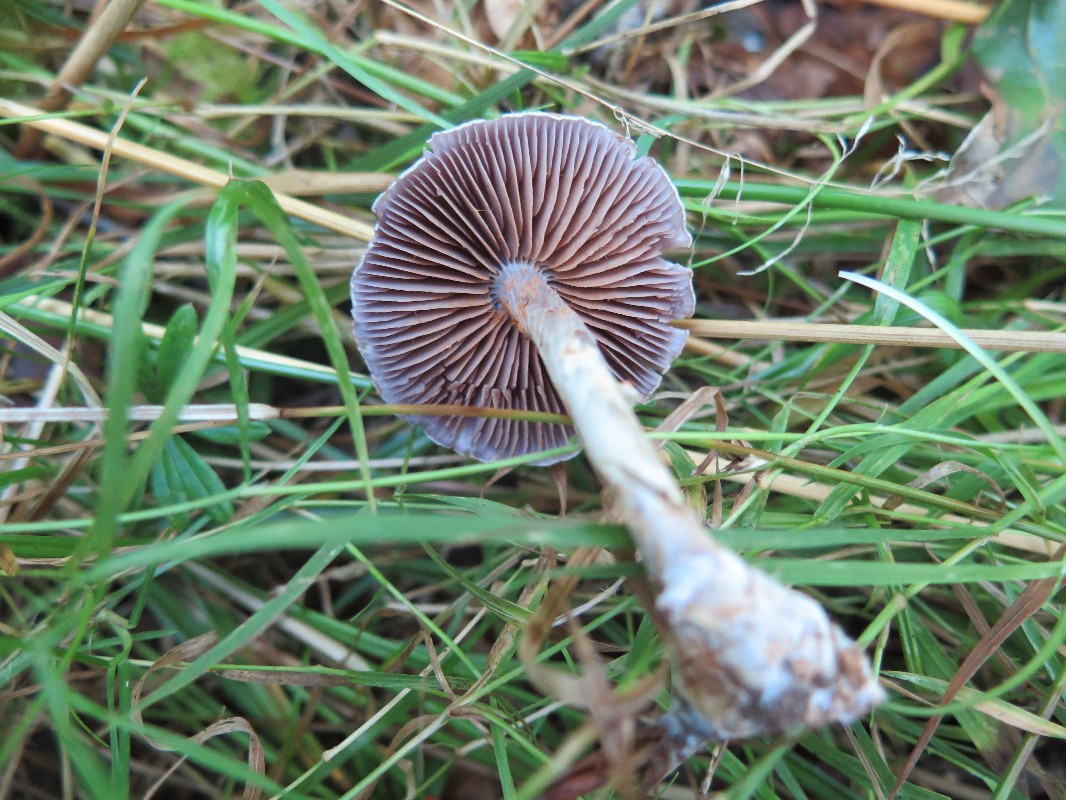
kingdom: Fungi
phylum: Basidiomycota
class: Agaricomycetes
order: Agaricales
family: Cortinariaceae
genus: Cortinarius
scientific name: Cortinarius albocyaneus
